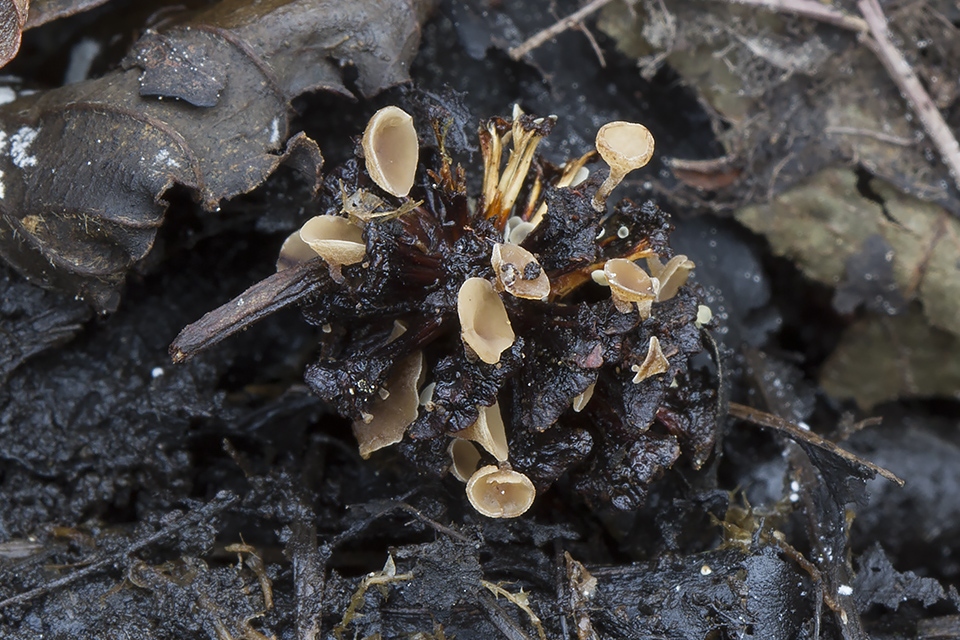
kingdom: Fungi
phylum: Ascomycota
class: Leotiomycetes
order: Helotiales
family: Sclerotiniaceae
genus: Ciboria
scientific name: Ciboria viridifusca
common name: ellekogle-knoldskive
